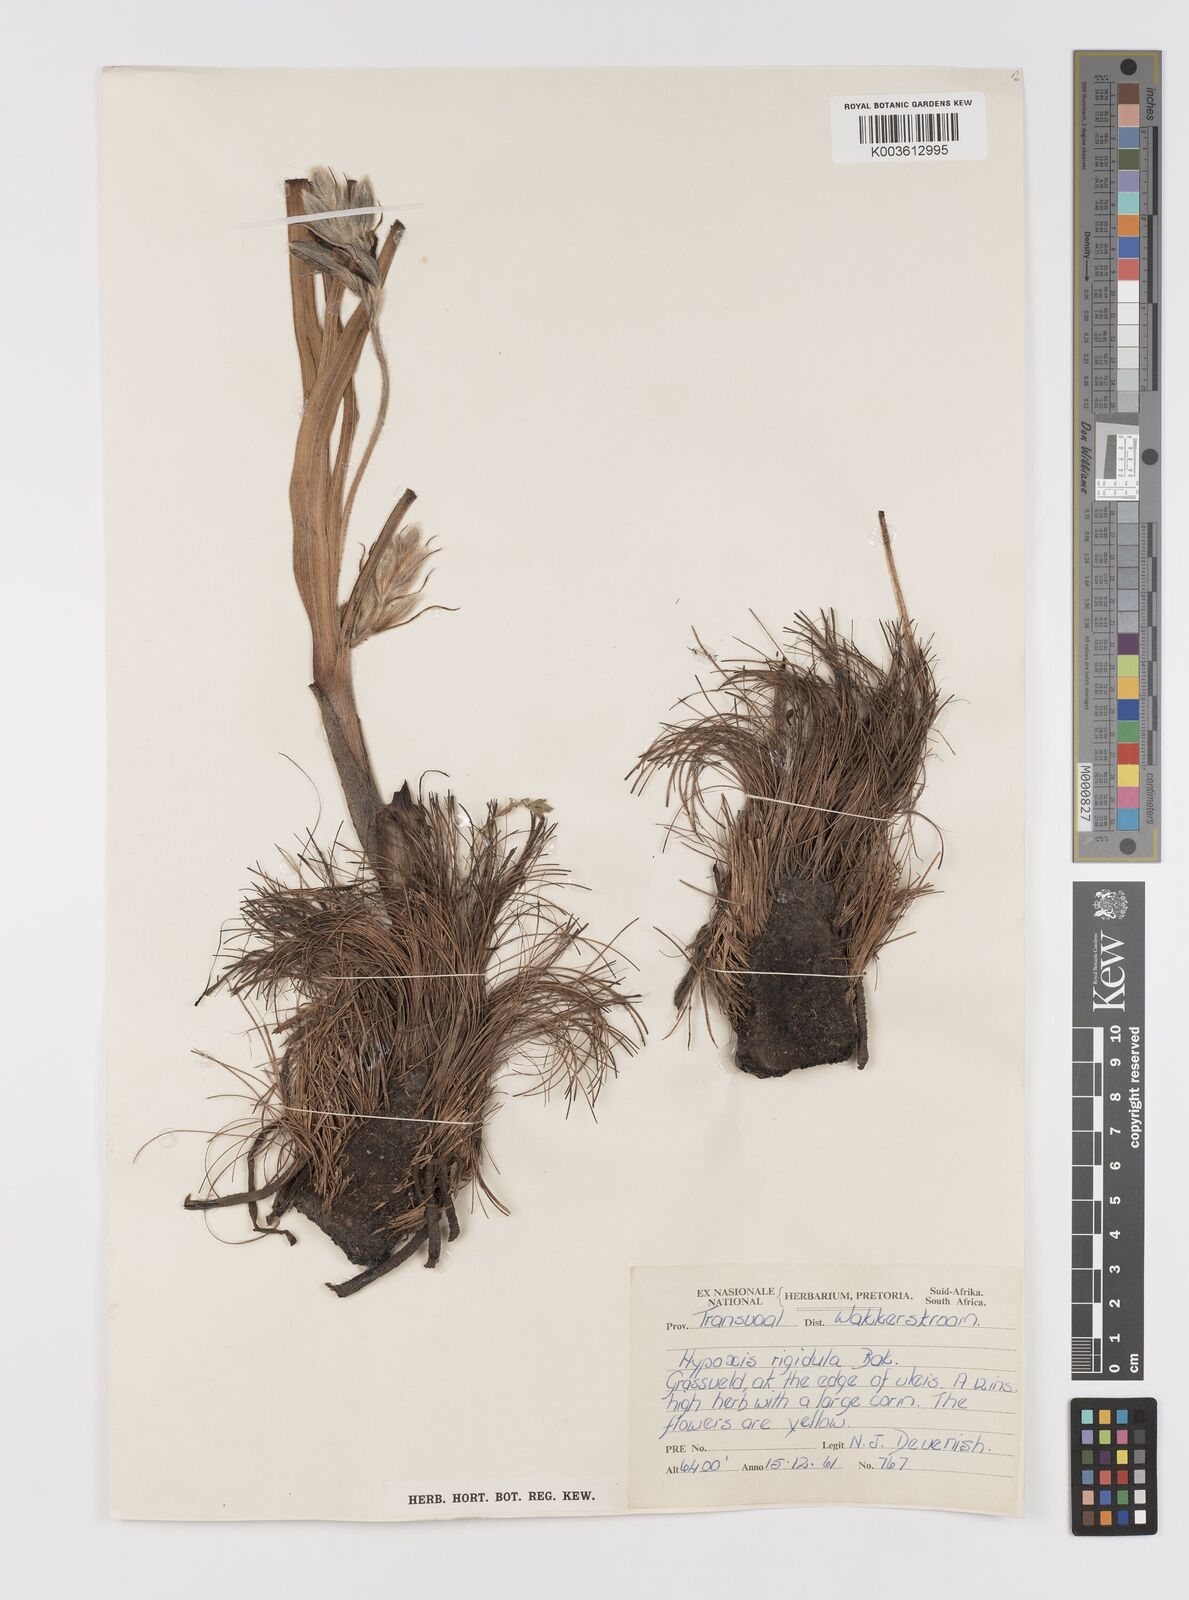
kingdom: Plantae
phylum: Tracheophyta
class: Liliopsida
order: Asparagales
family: Hypoxidaceae
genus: Hypoxis
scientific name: Hypoxis rigidula
